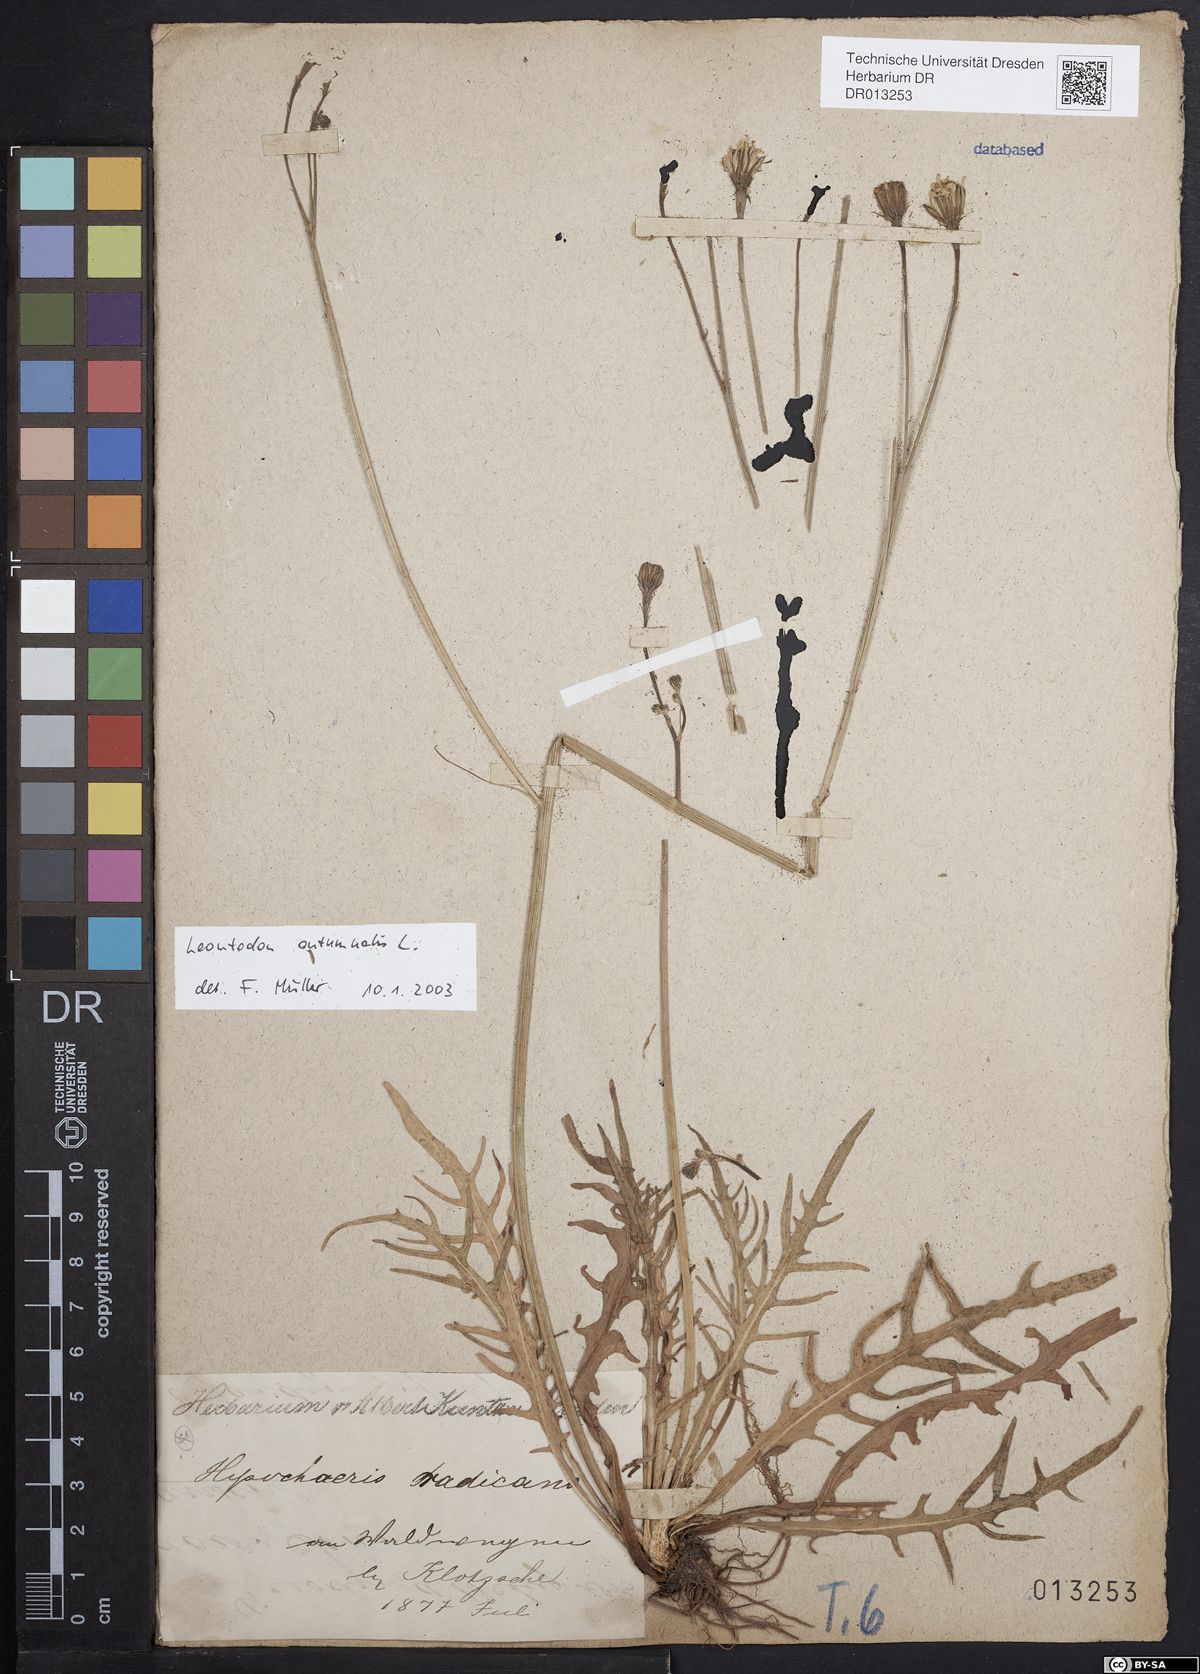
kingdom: Plantae
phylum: Tracheophyta
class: Magnoliopsida
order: Asterales
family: Asteraceae
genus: Scorzoneroides
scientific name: Scorzoneroides autumnalis
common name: Autumn hawkbit
